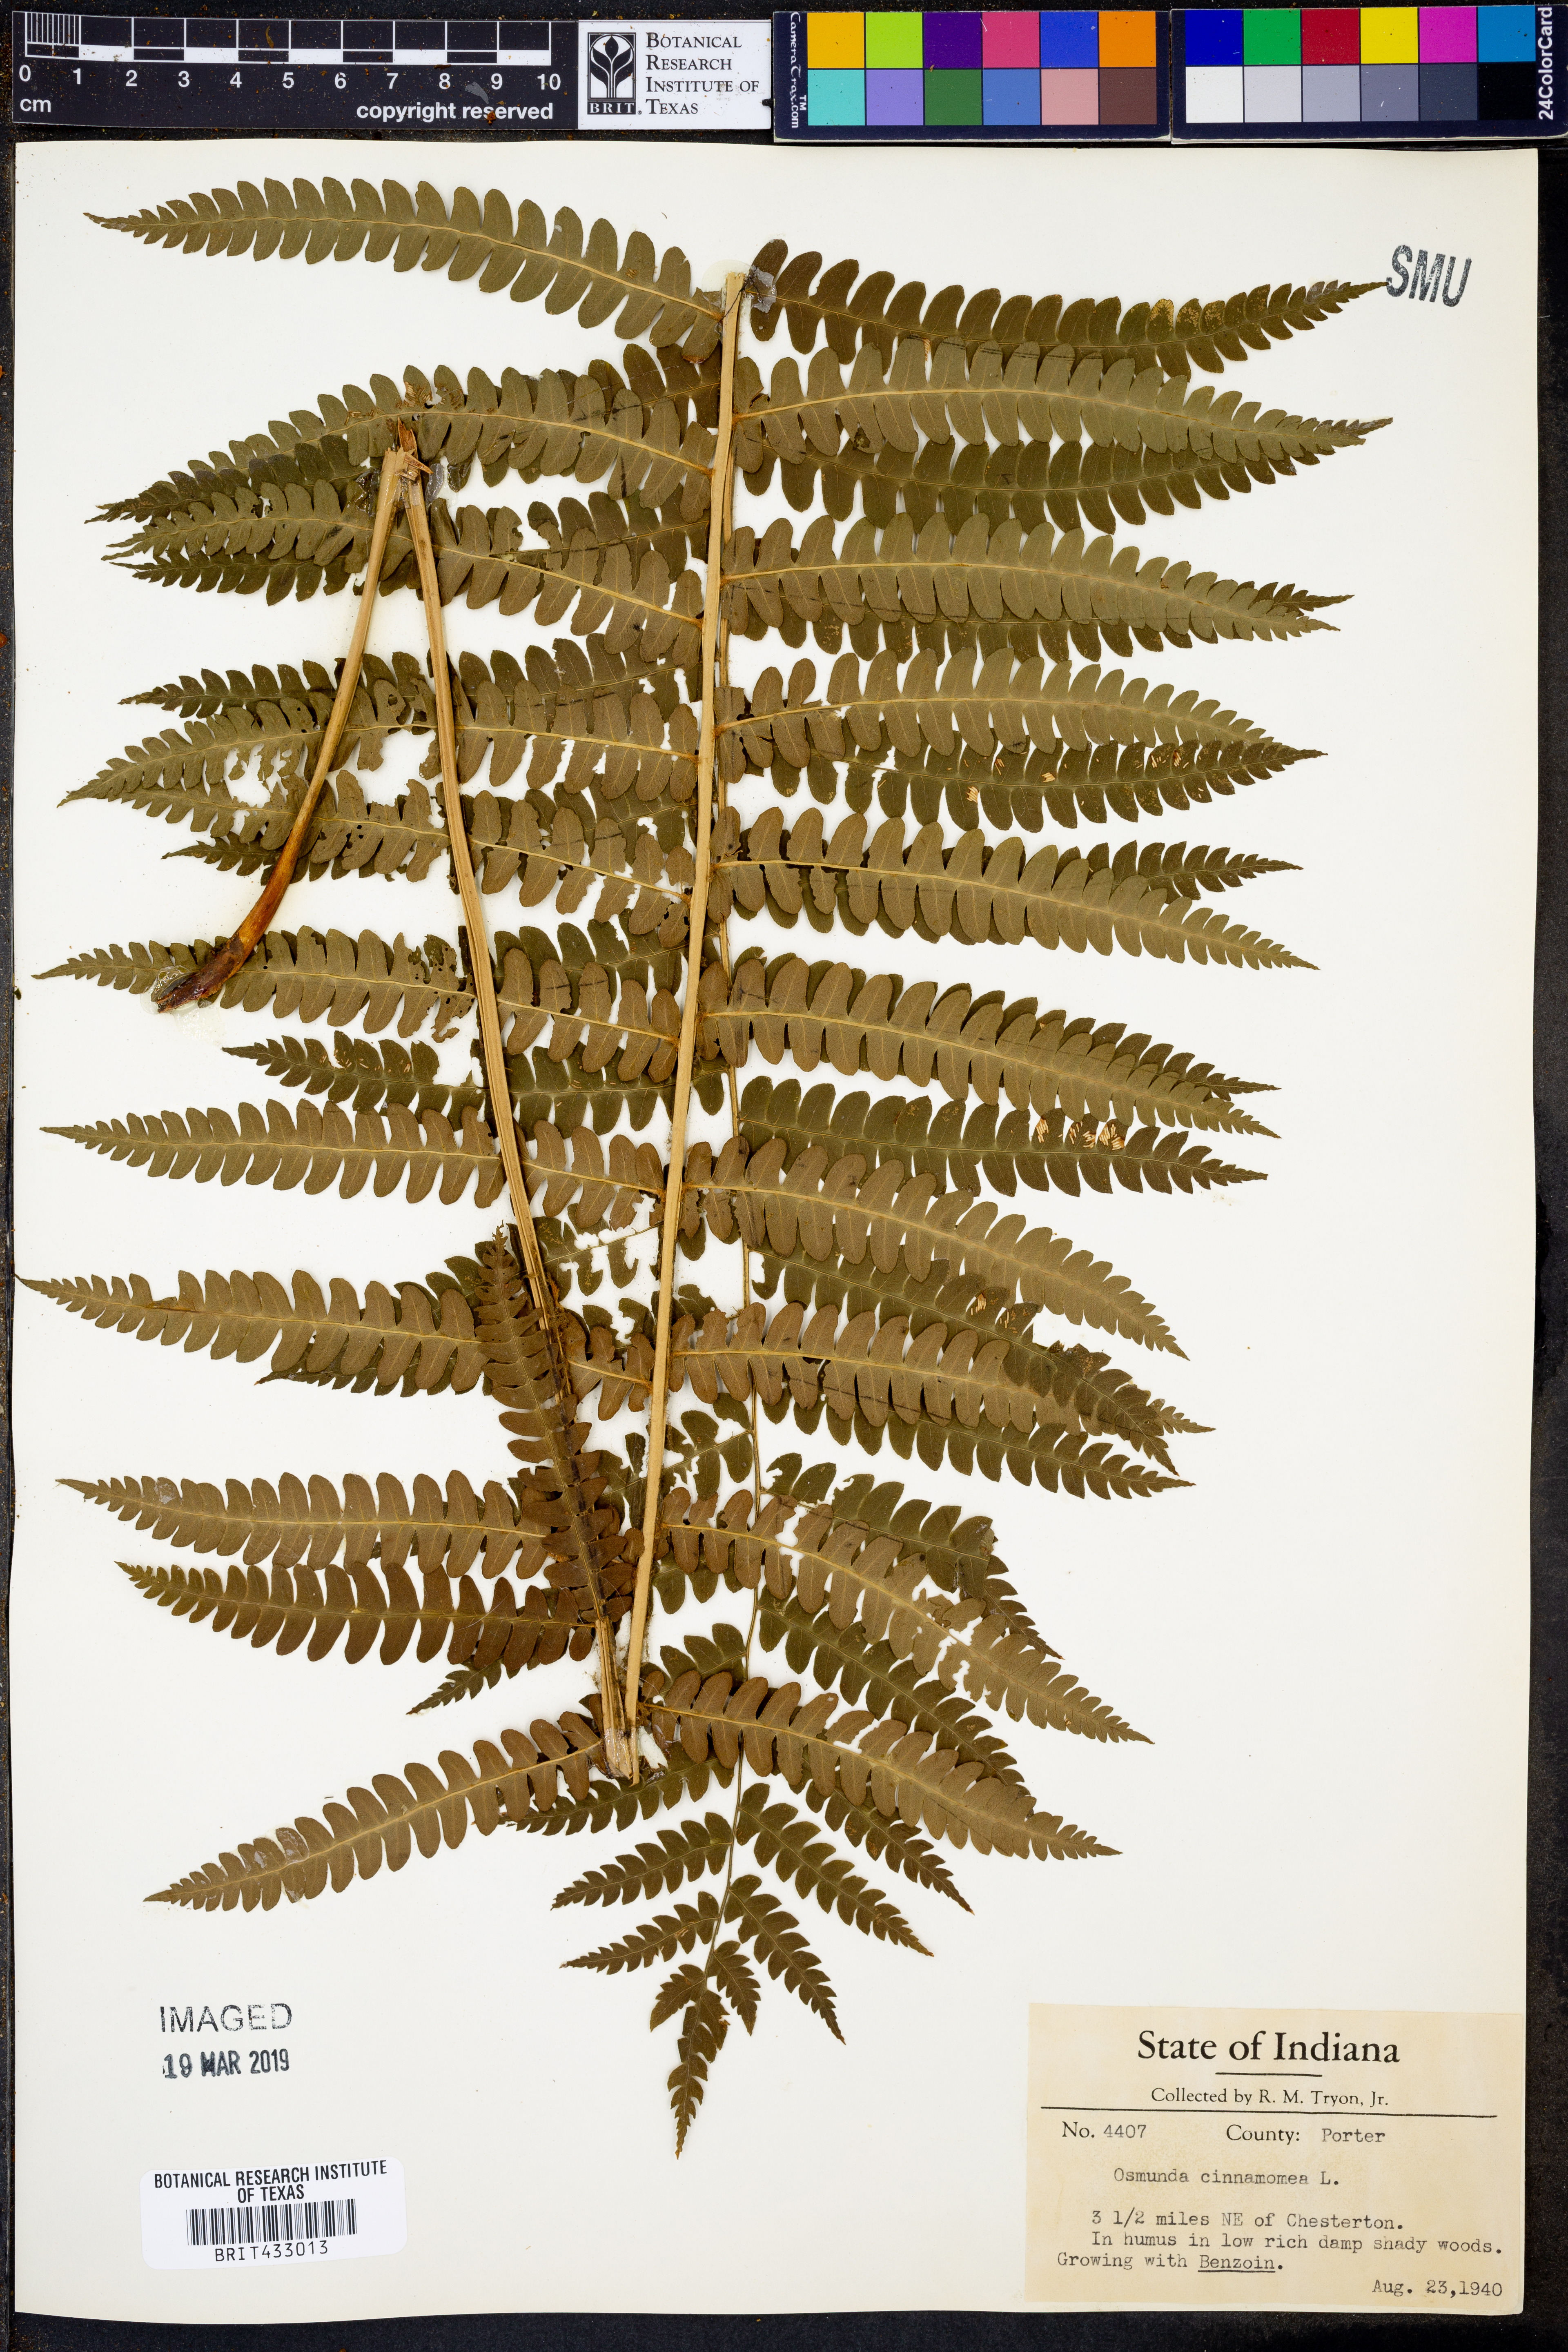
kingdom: Plantae
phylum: Tracheophyta
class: Polypodiopsida
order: Osmundales
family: Osmundaceae
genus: Osmundastrum
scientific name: Osmundastrum cinnamomeum
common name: Cinnamon fern
